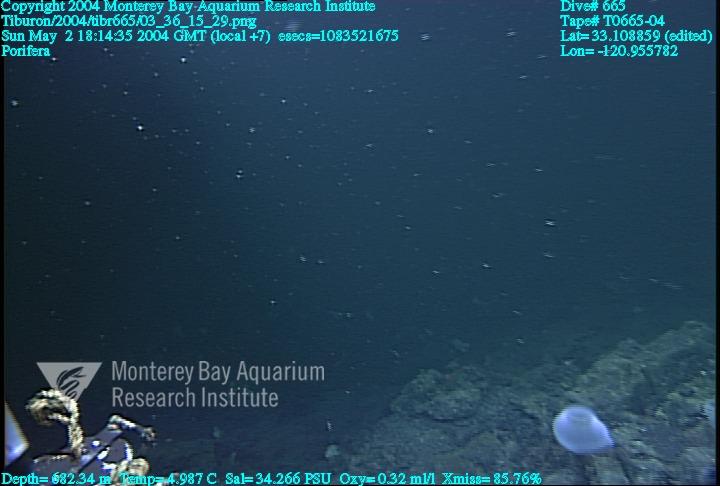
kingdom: Animalia
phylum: Porifera
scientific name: Porifera
